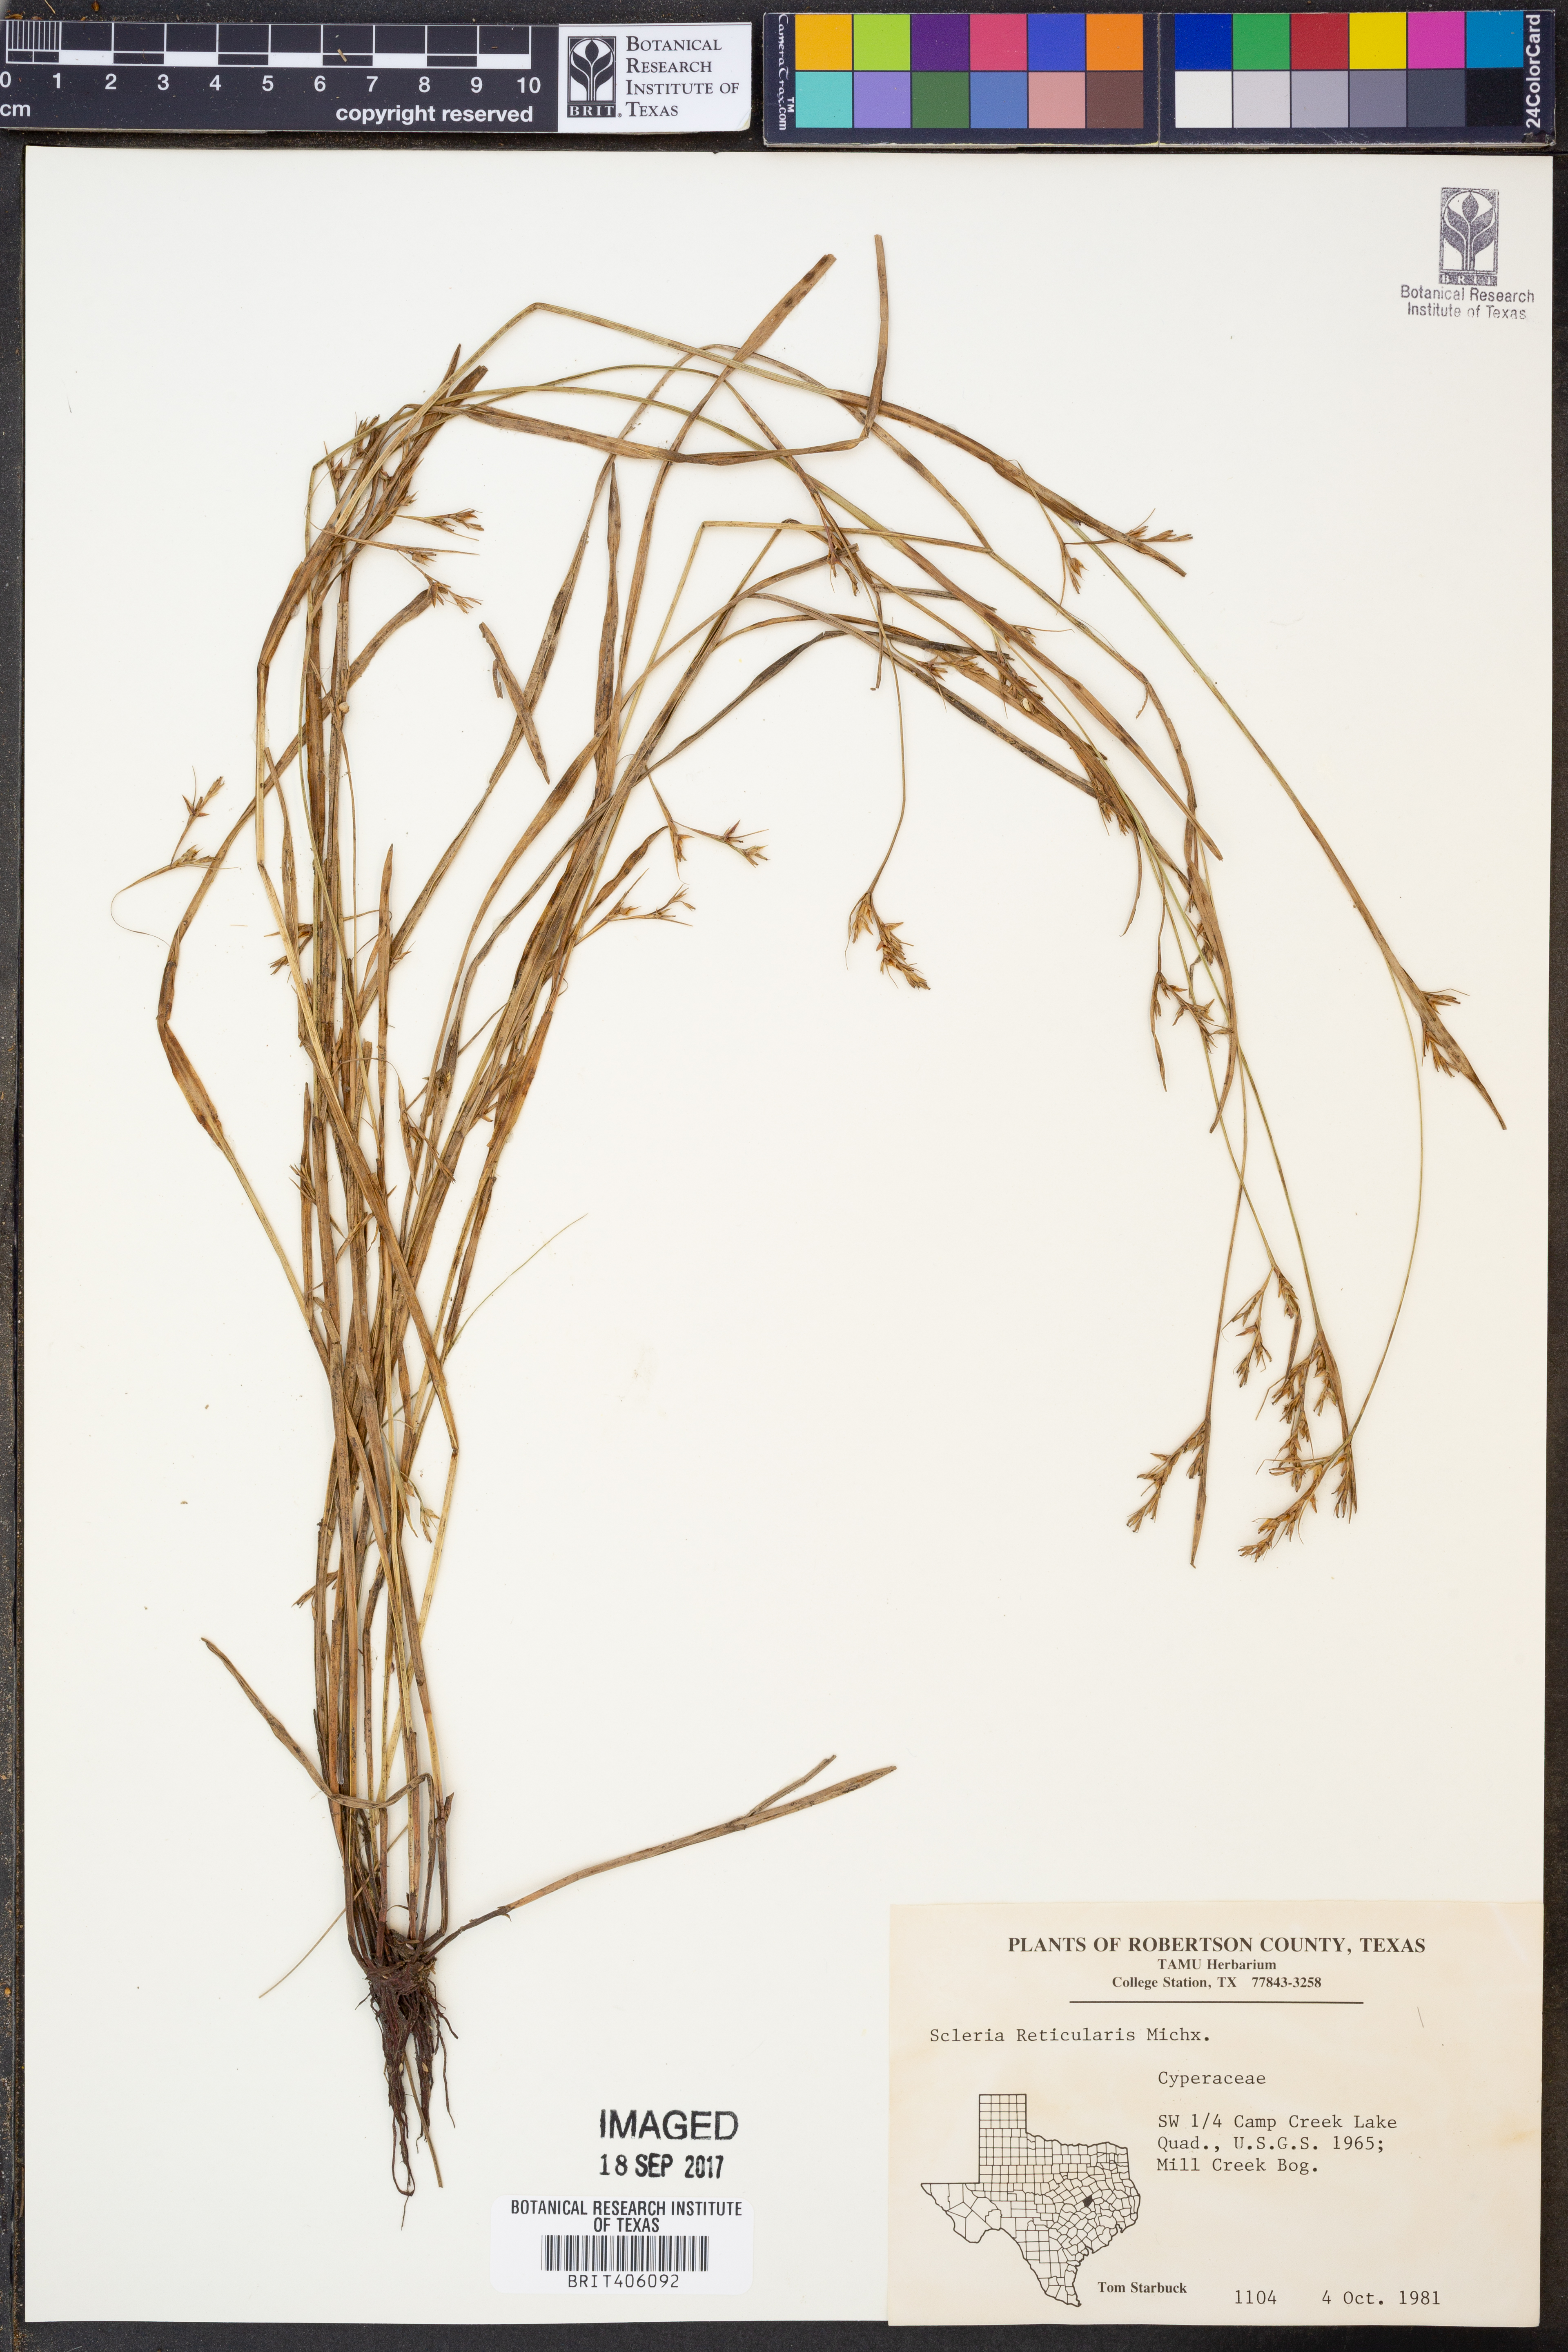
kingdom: Plantae
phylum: Tracheophyta
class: Liliopsida
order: Poales
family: Cyperaceae
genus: Scleria
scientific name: Scleria reticularis
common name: Netted nutrush
